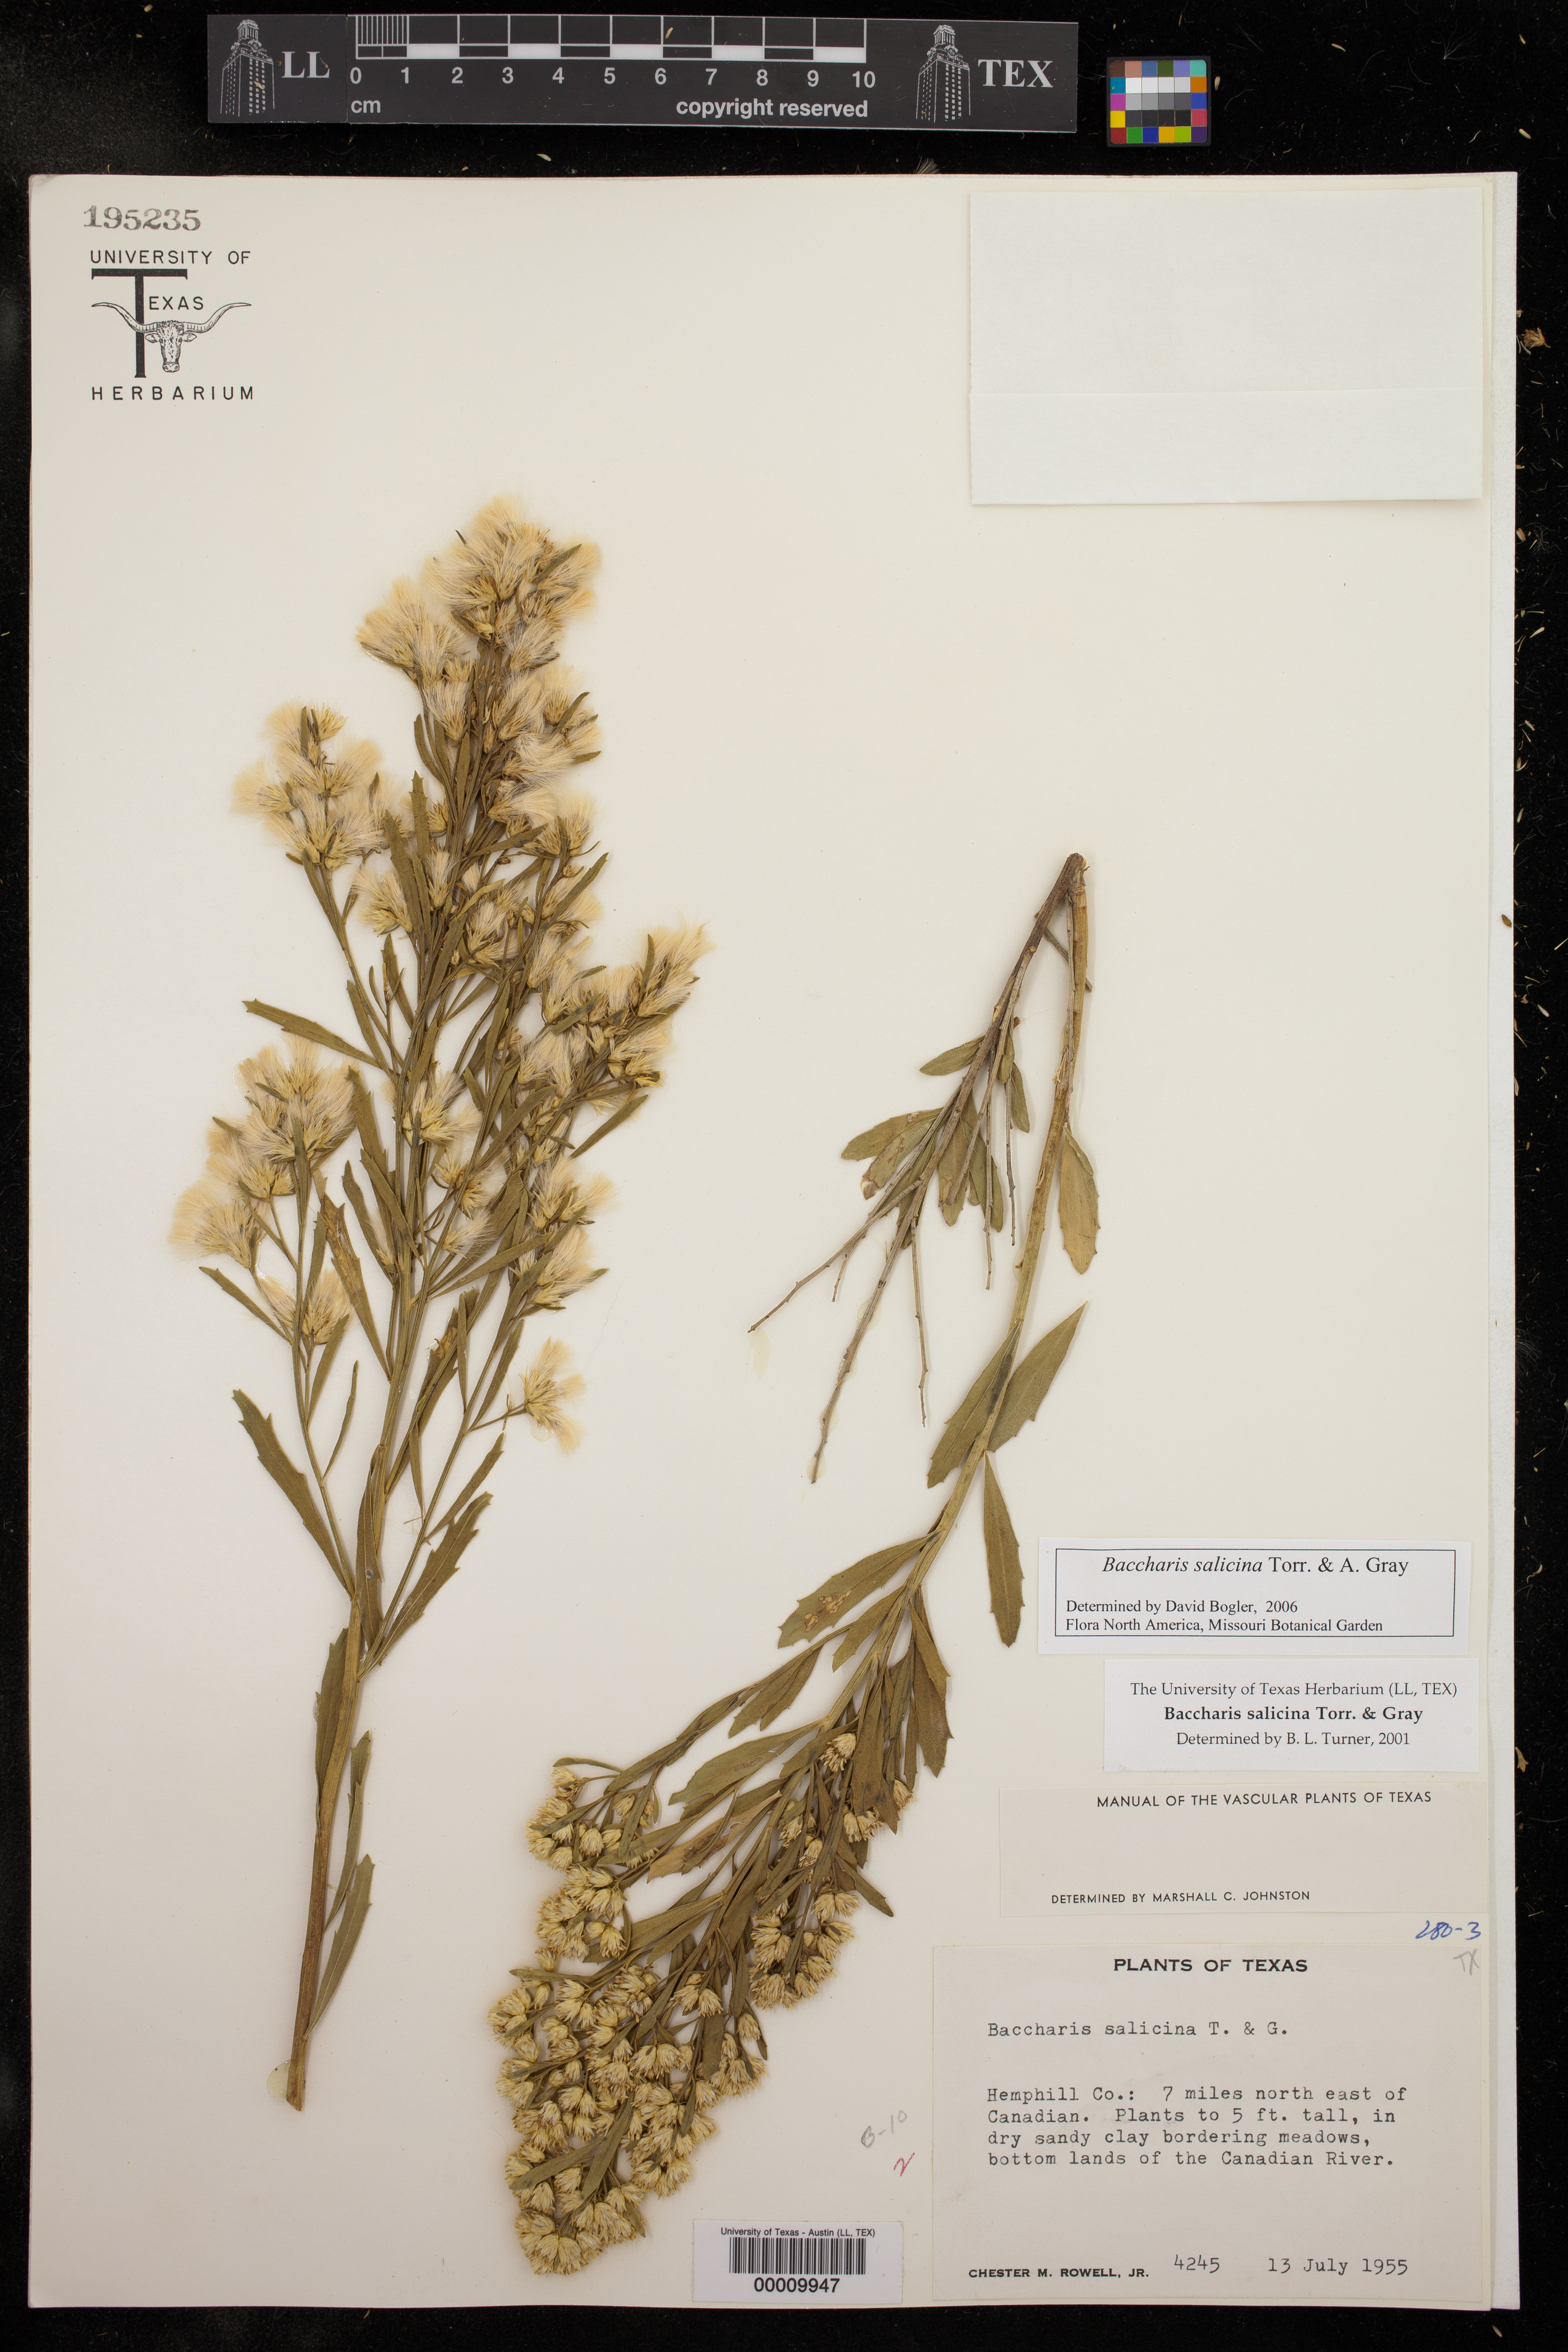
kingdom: Plantae
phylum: Tracheophyta
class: Magnoliopsida
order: Asterales
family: Asteraceae
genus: Baccharis
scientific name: Baccharis salicina
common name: Willow baccharis
